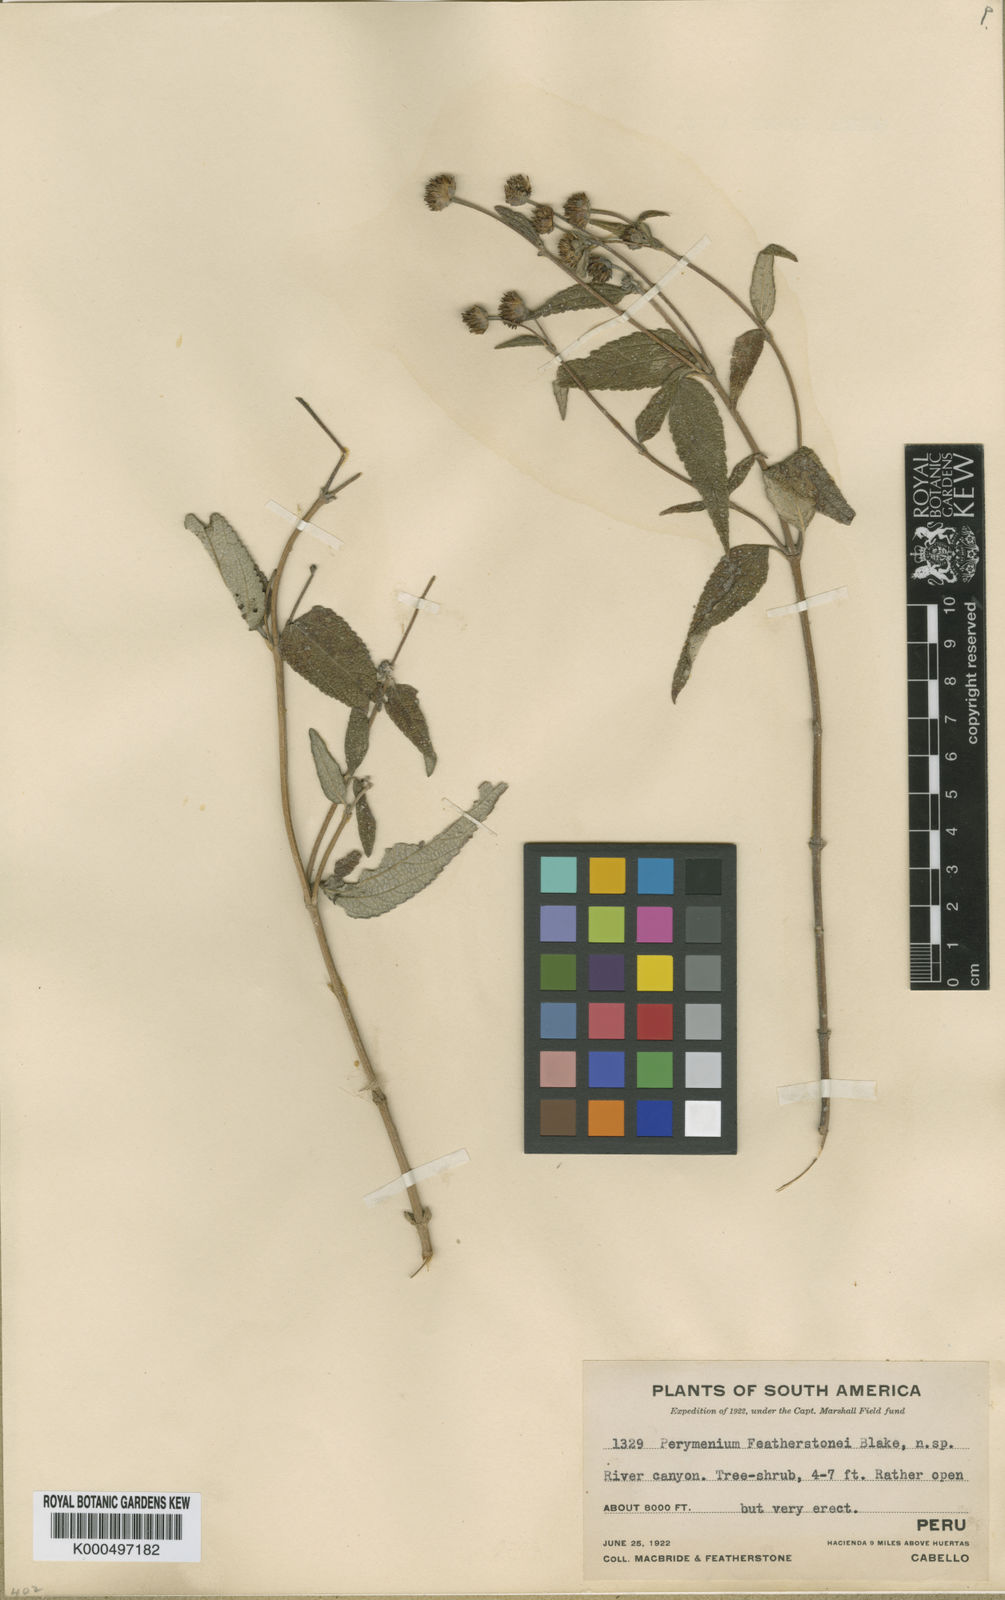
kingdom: Plantae
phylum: Tracheophyta
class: Magnoliopsida
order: Asterales
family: Asteraceae
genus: Perymenium
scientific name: Perymenium featherstonei
